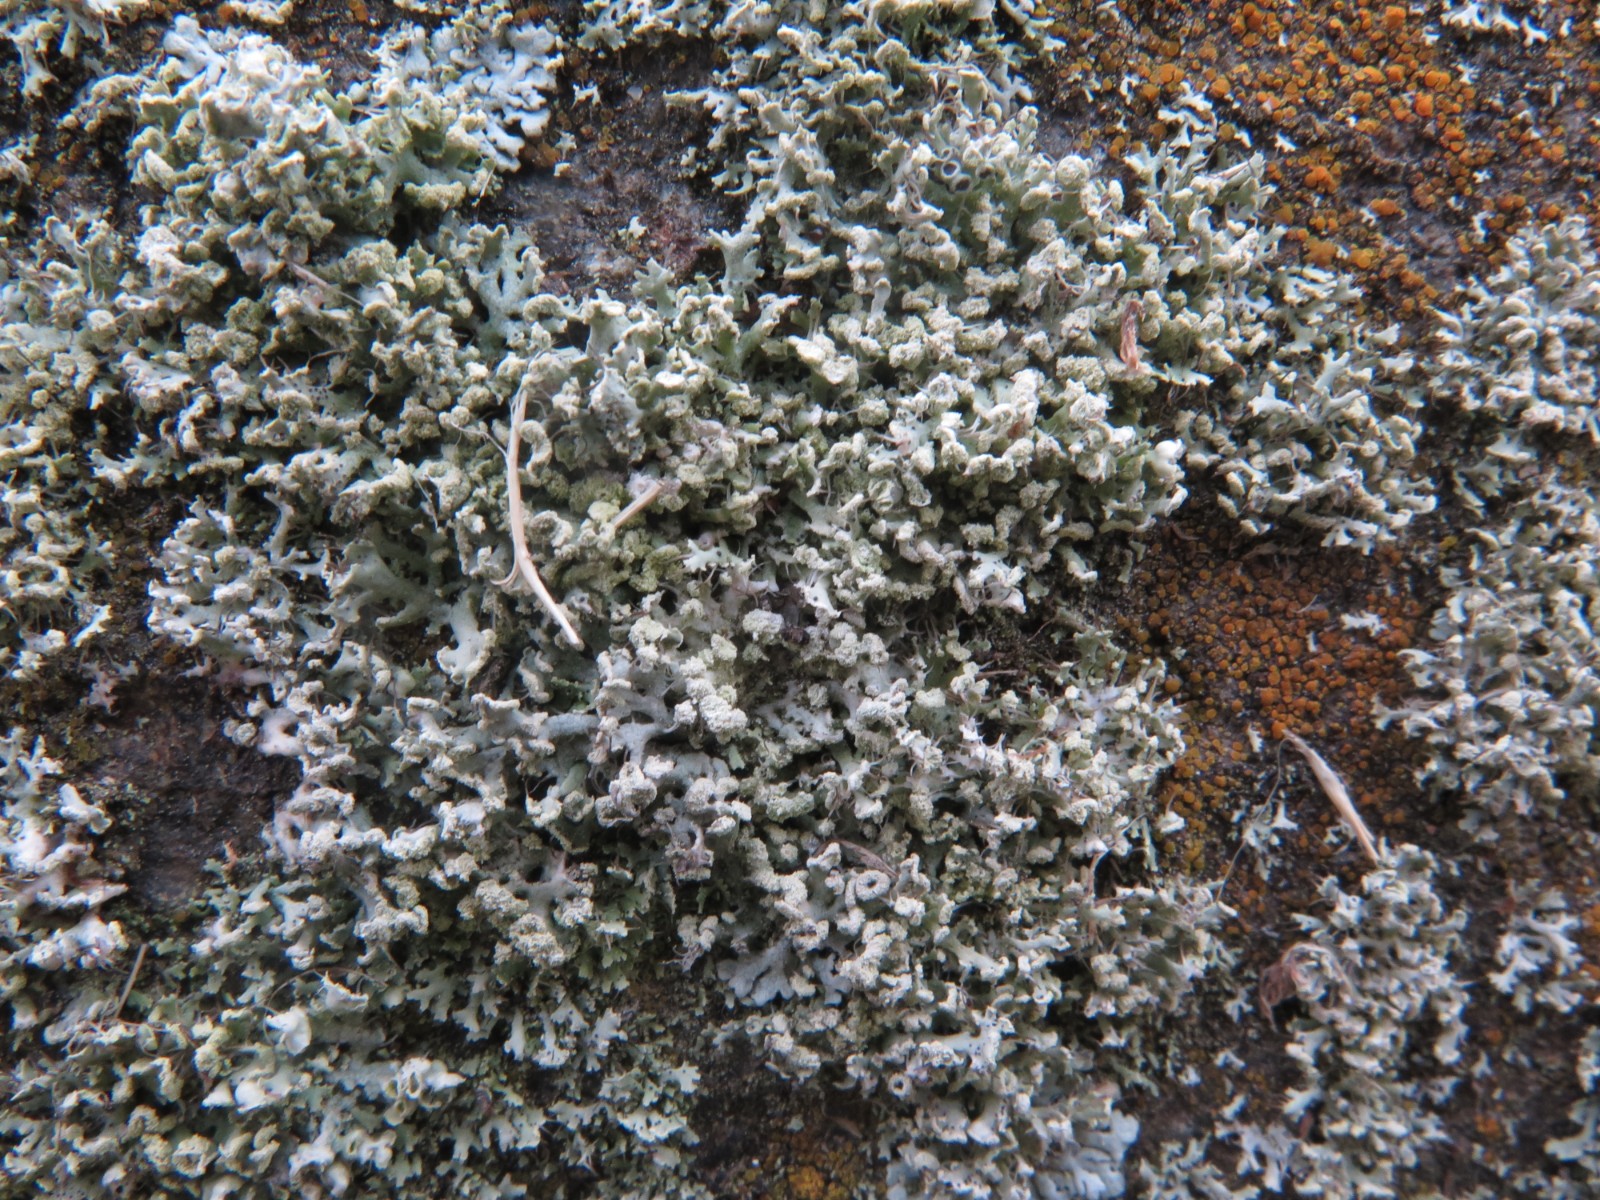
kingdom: Fungi
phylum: Ascomycota
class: Lecanoromycetes
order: Caliciales
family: Physciaceae
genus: Physcia
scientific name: Physcia adscendens
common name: hætte-rosetlav
